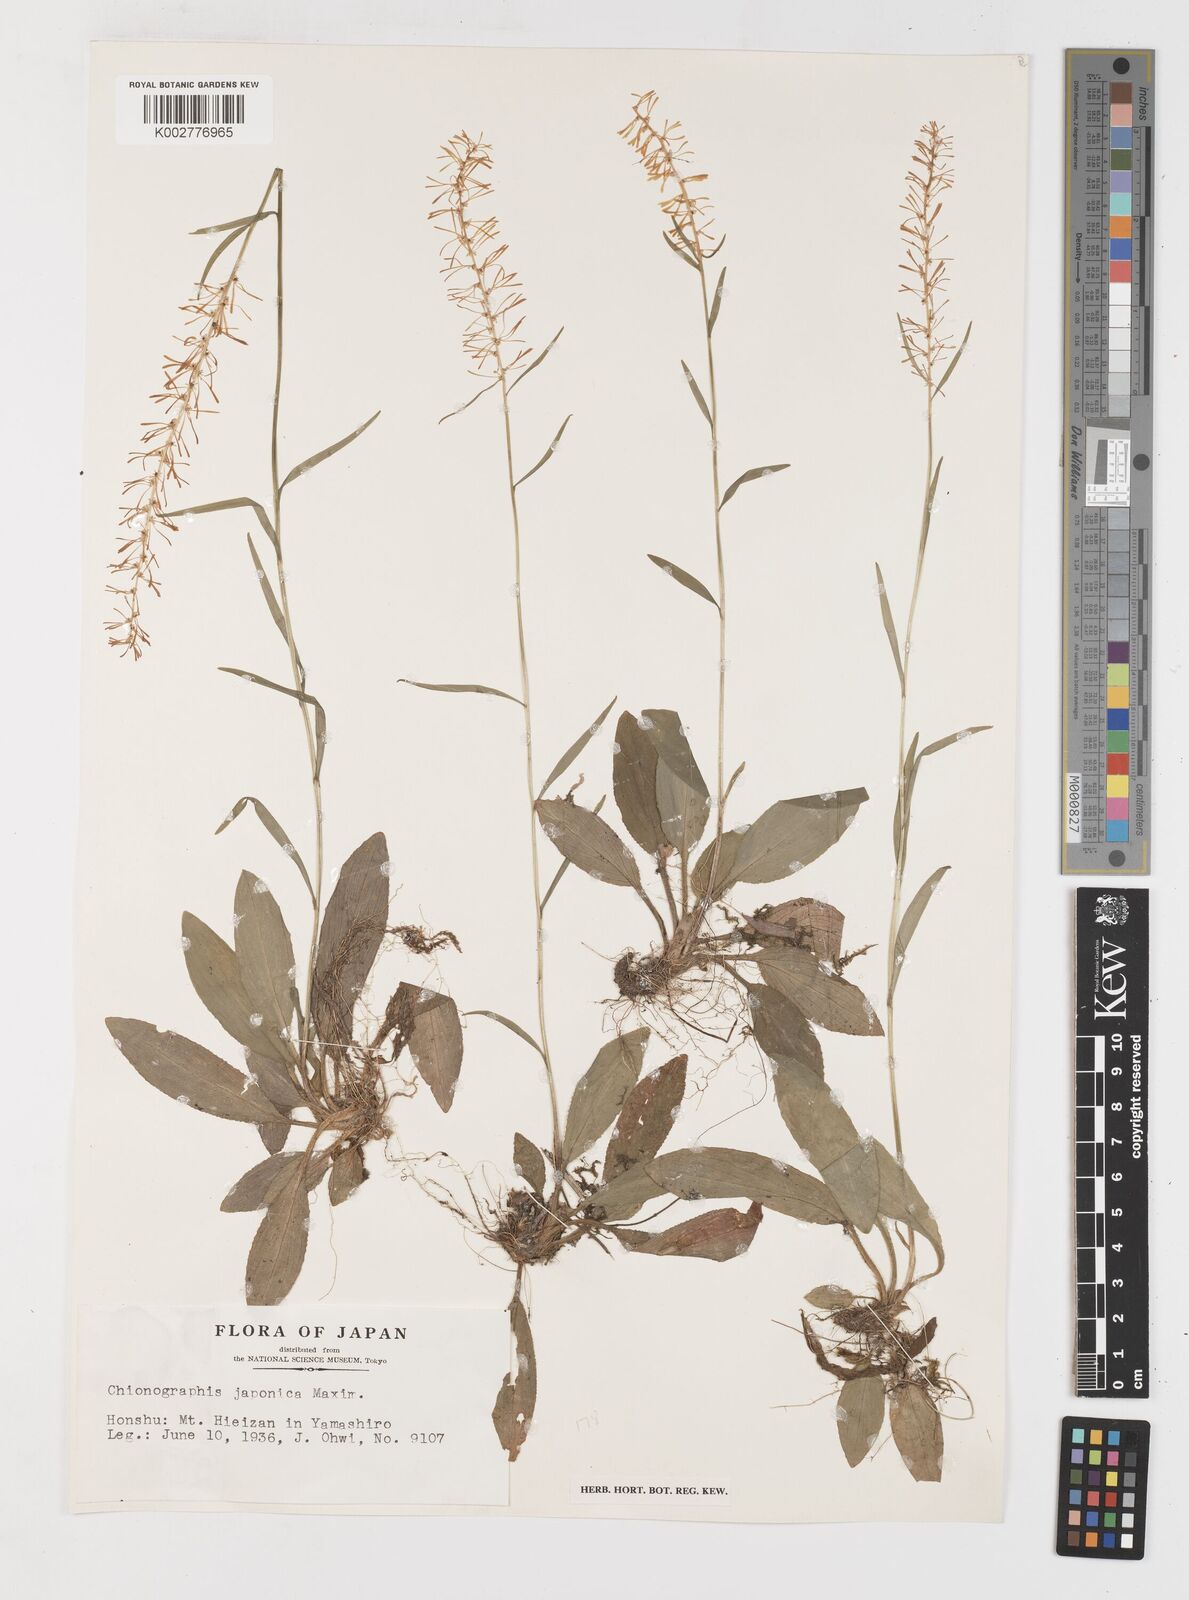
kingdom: Plantae
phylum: Tracheophyta
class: Liliopsida
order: Liliales
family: Melanthiaceae
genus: Chamaelirium
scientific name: Chamaelirium japonicum
